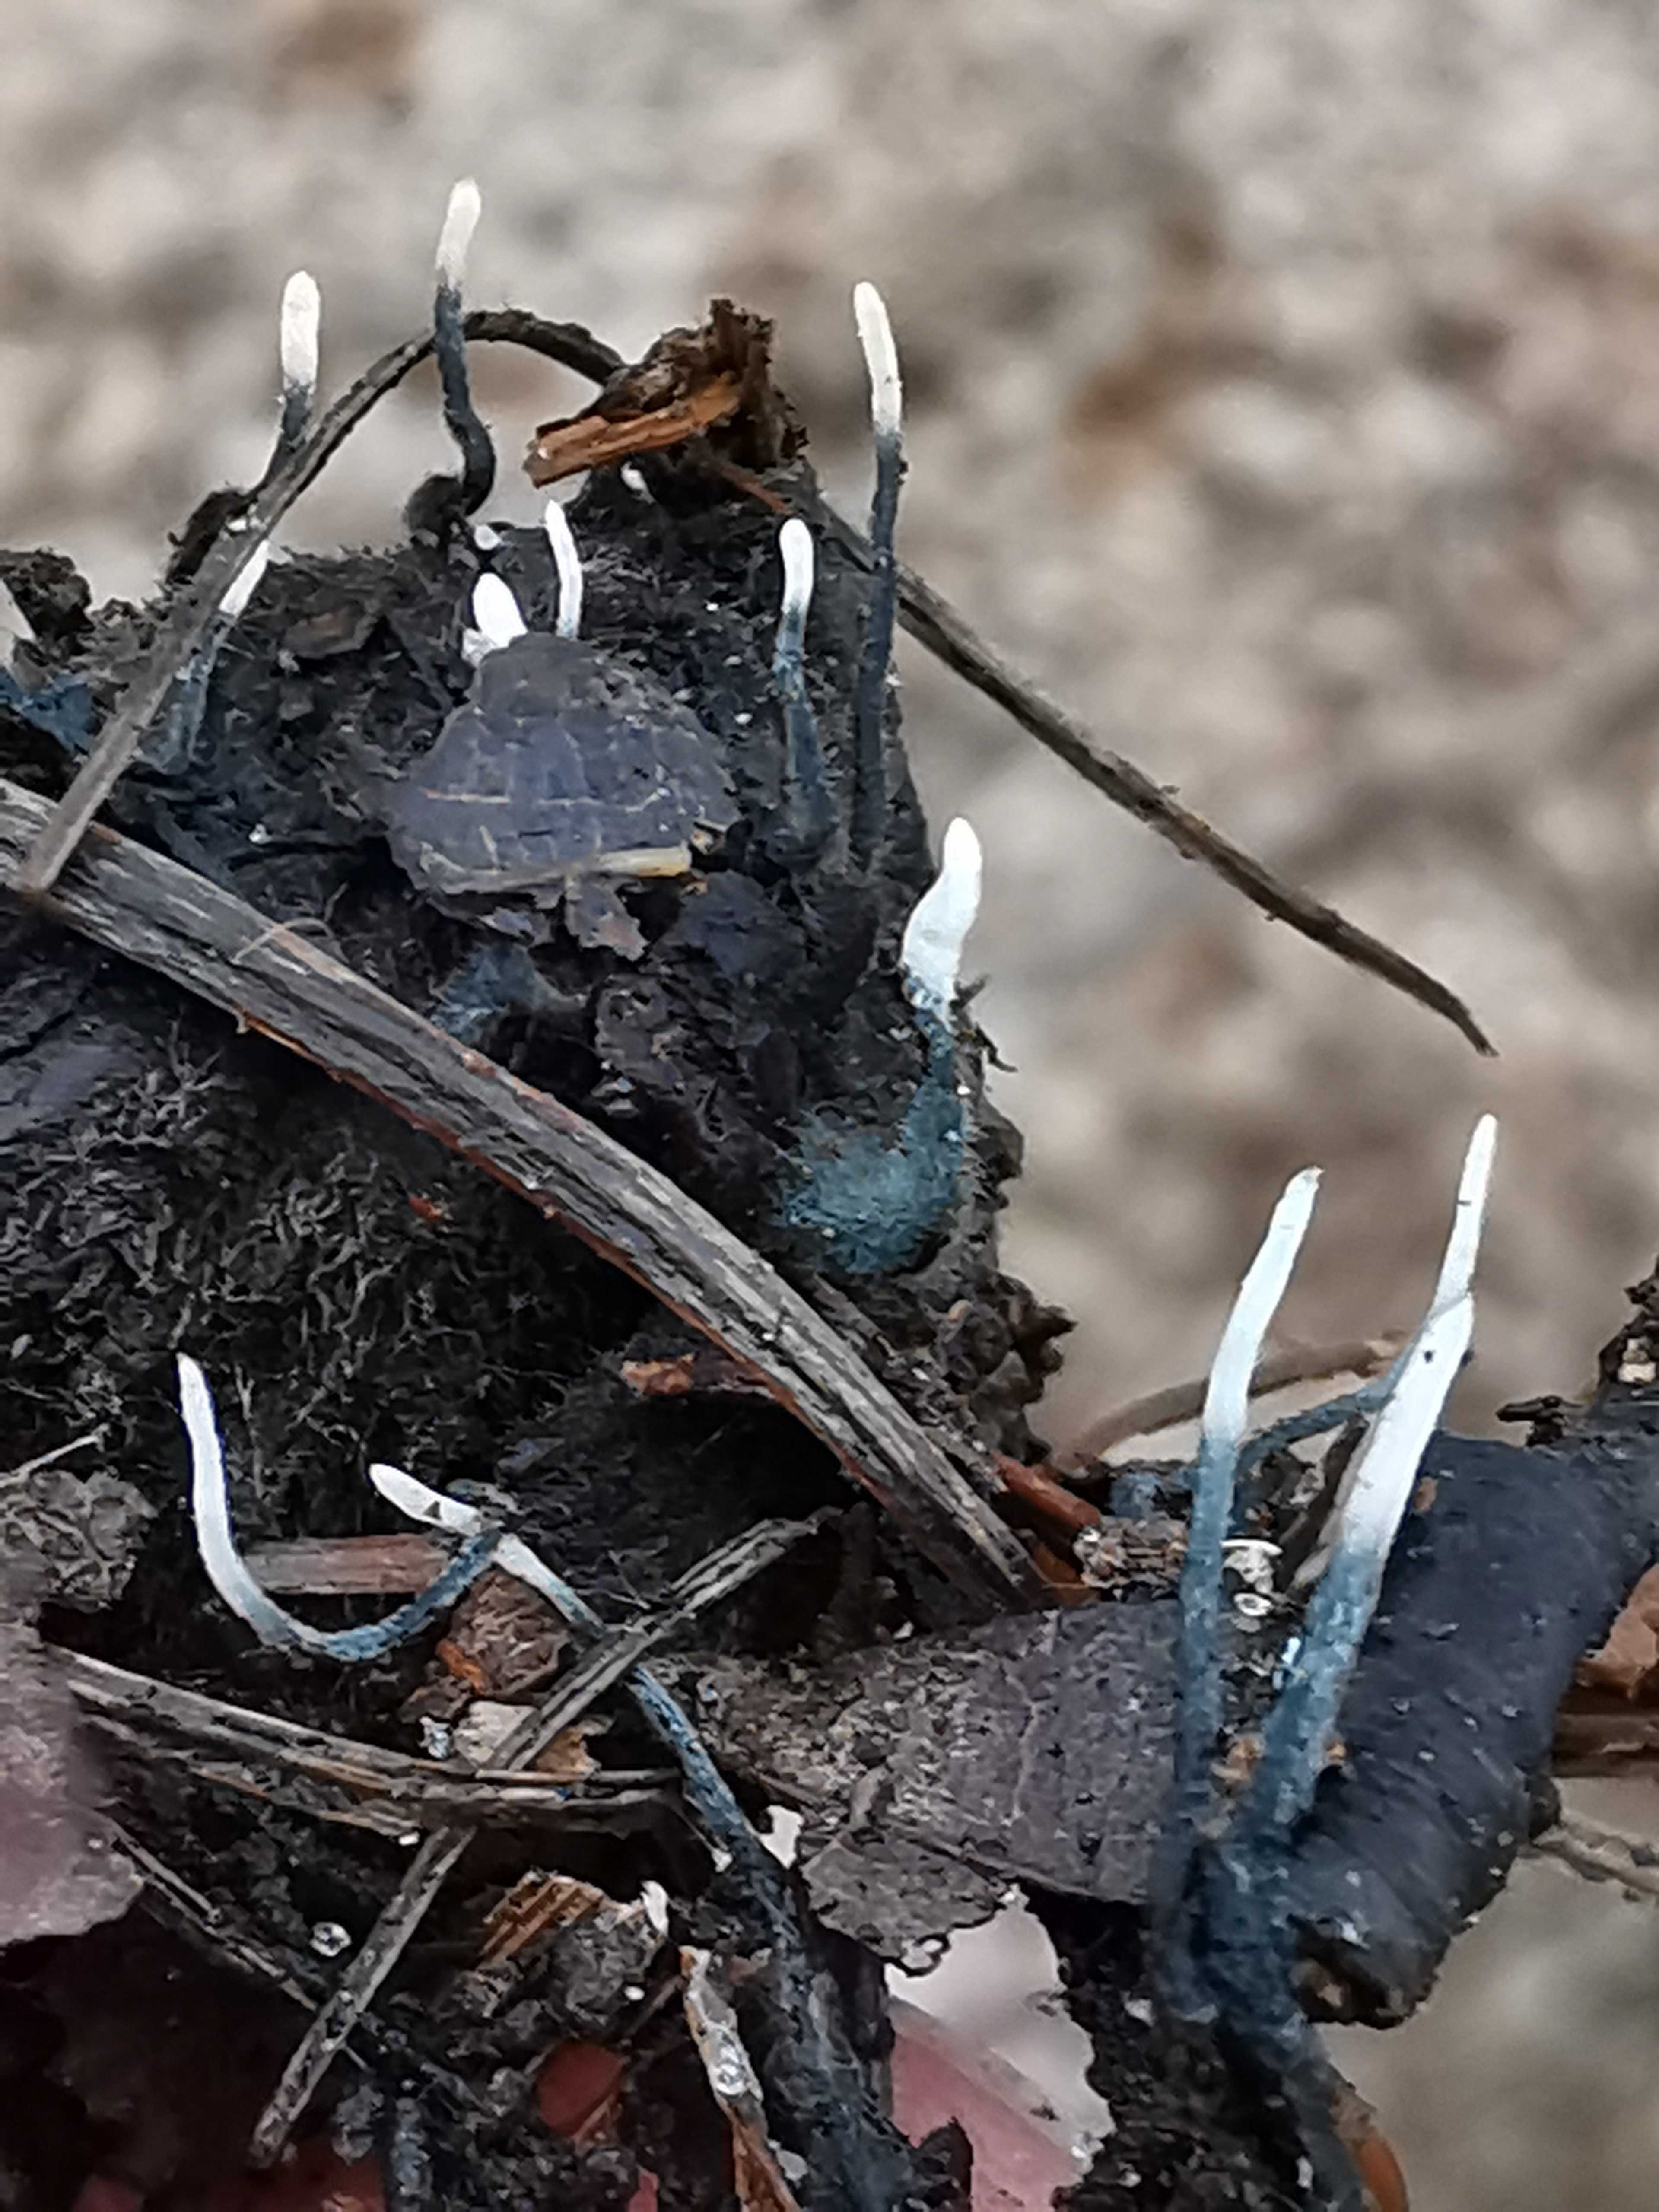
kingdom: Fungi
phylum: Ascomycota
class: Sordariomycetes
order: Xylariales
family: Xylariaceae
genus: Xylaria
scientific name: Xylaria carpophila
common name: bogskål-stødsvamp
